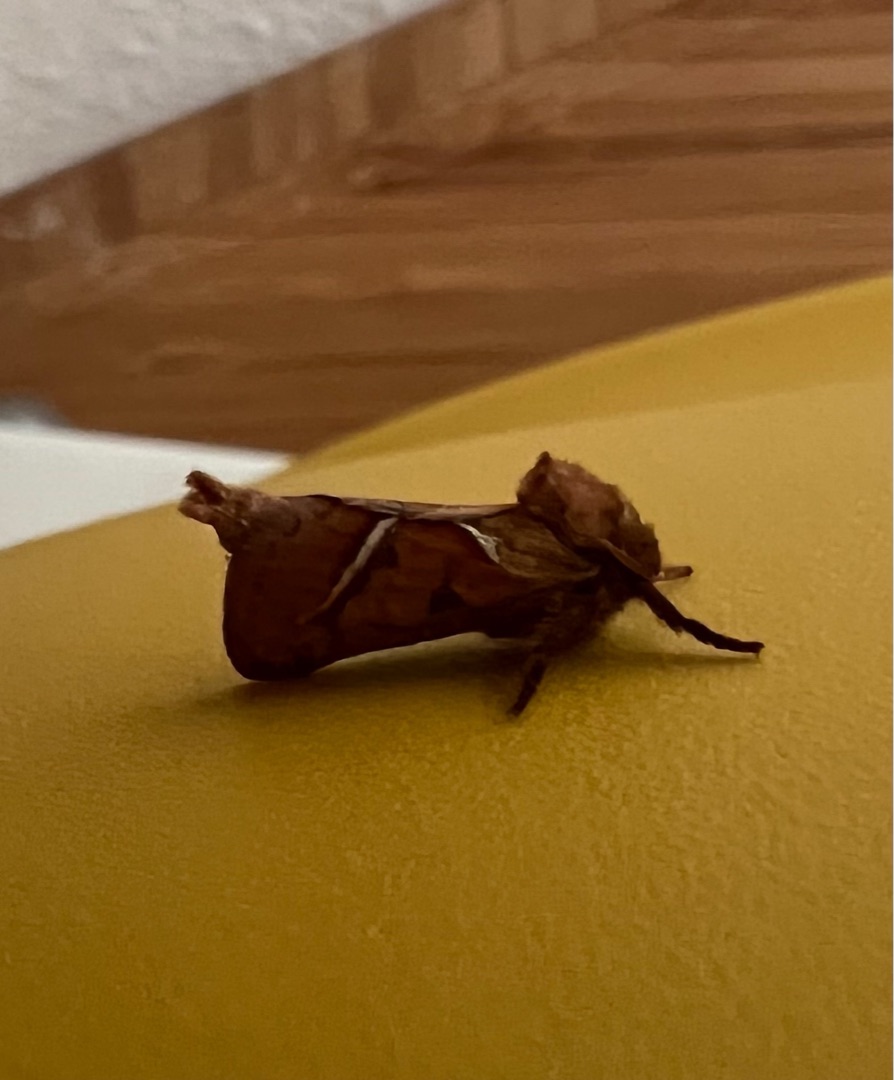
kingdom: Animalia
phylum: Arthropoda
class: Insecta
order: Lepidoptera
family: Hepialidae
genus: Triodia
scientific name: Triodia sylvina
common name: Skræpperodæder
